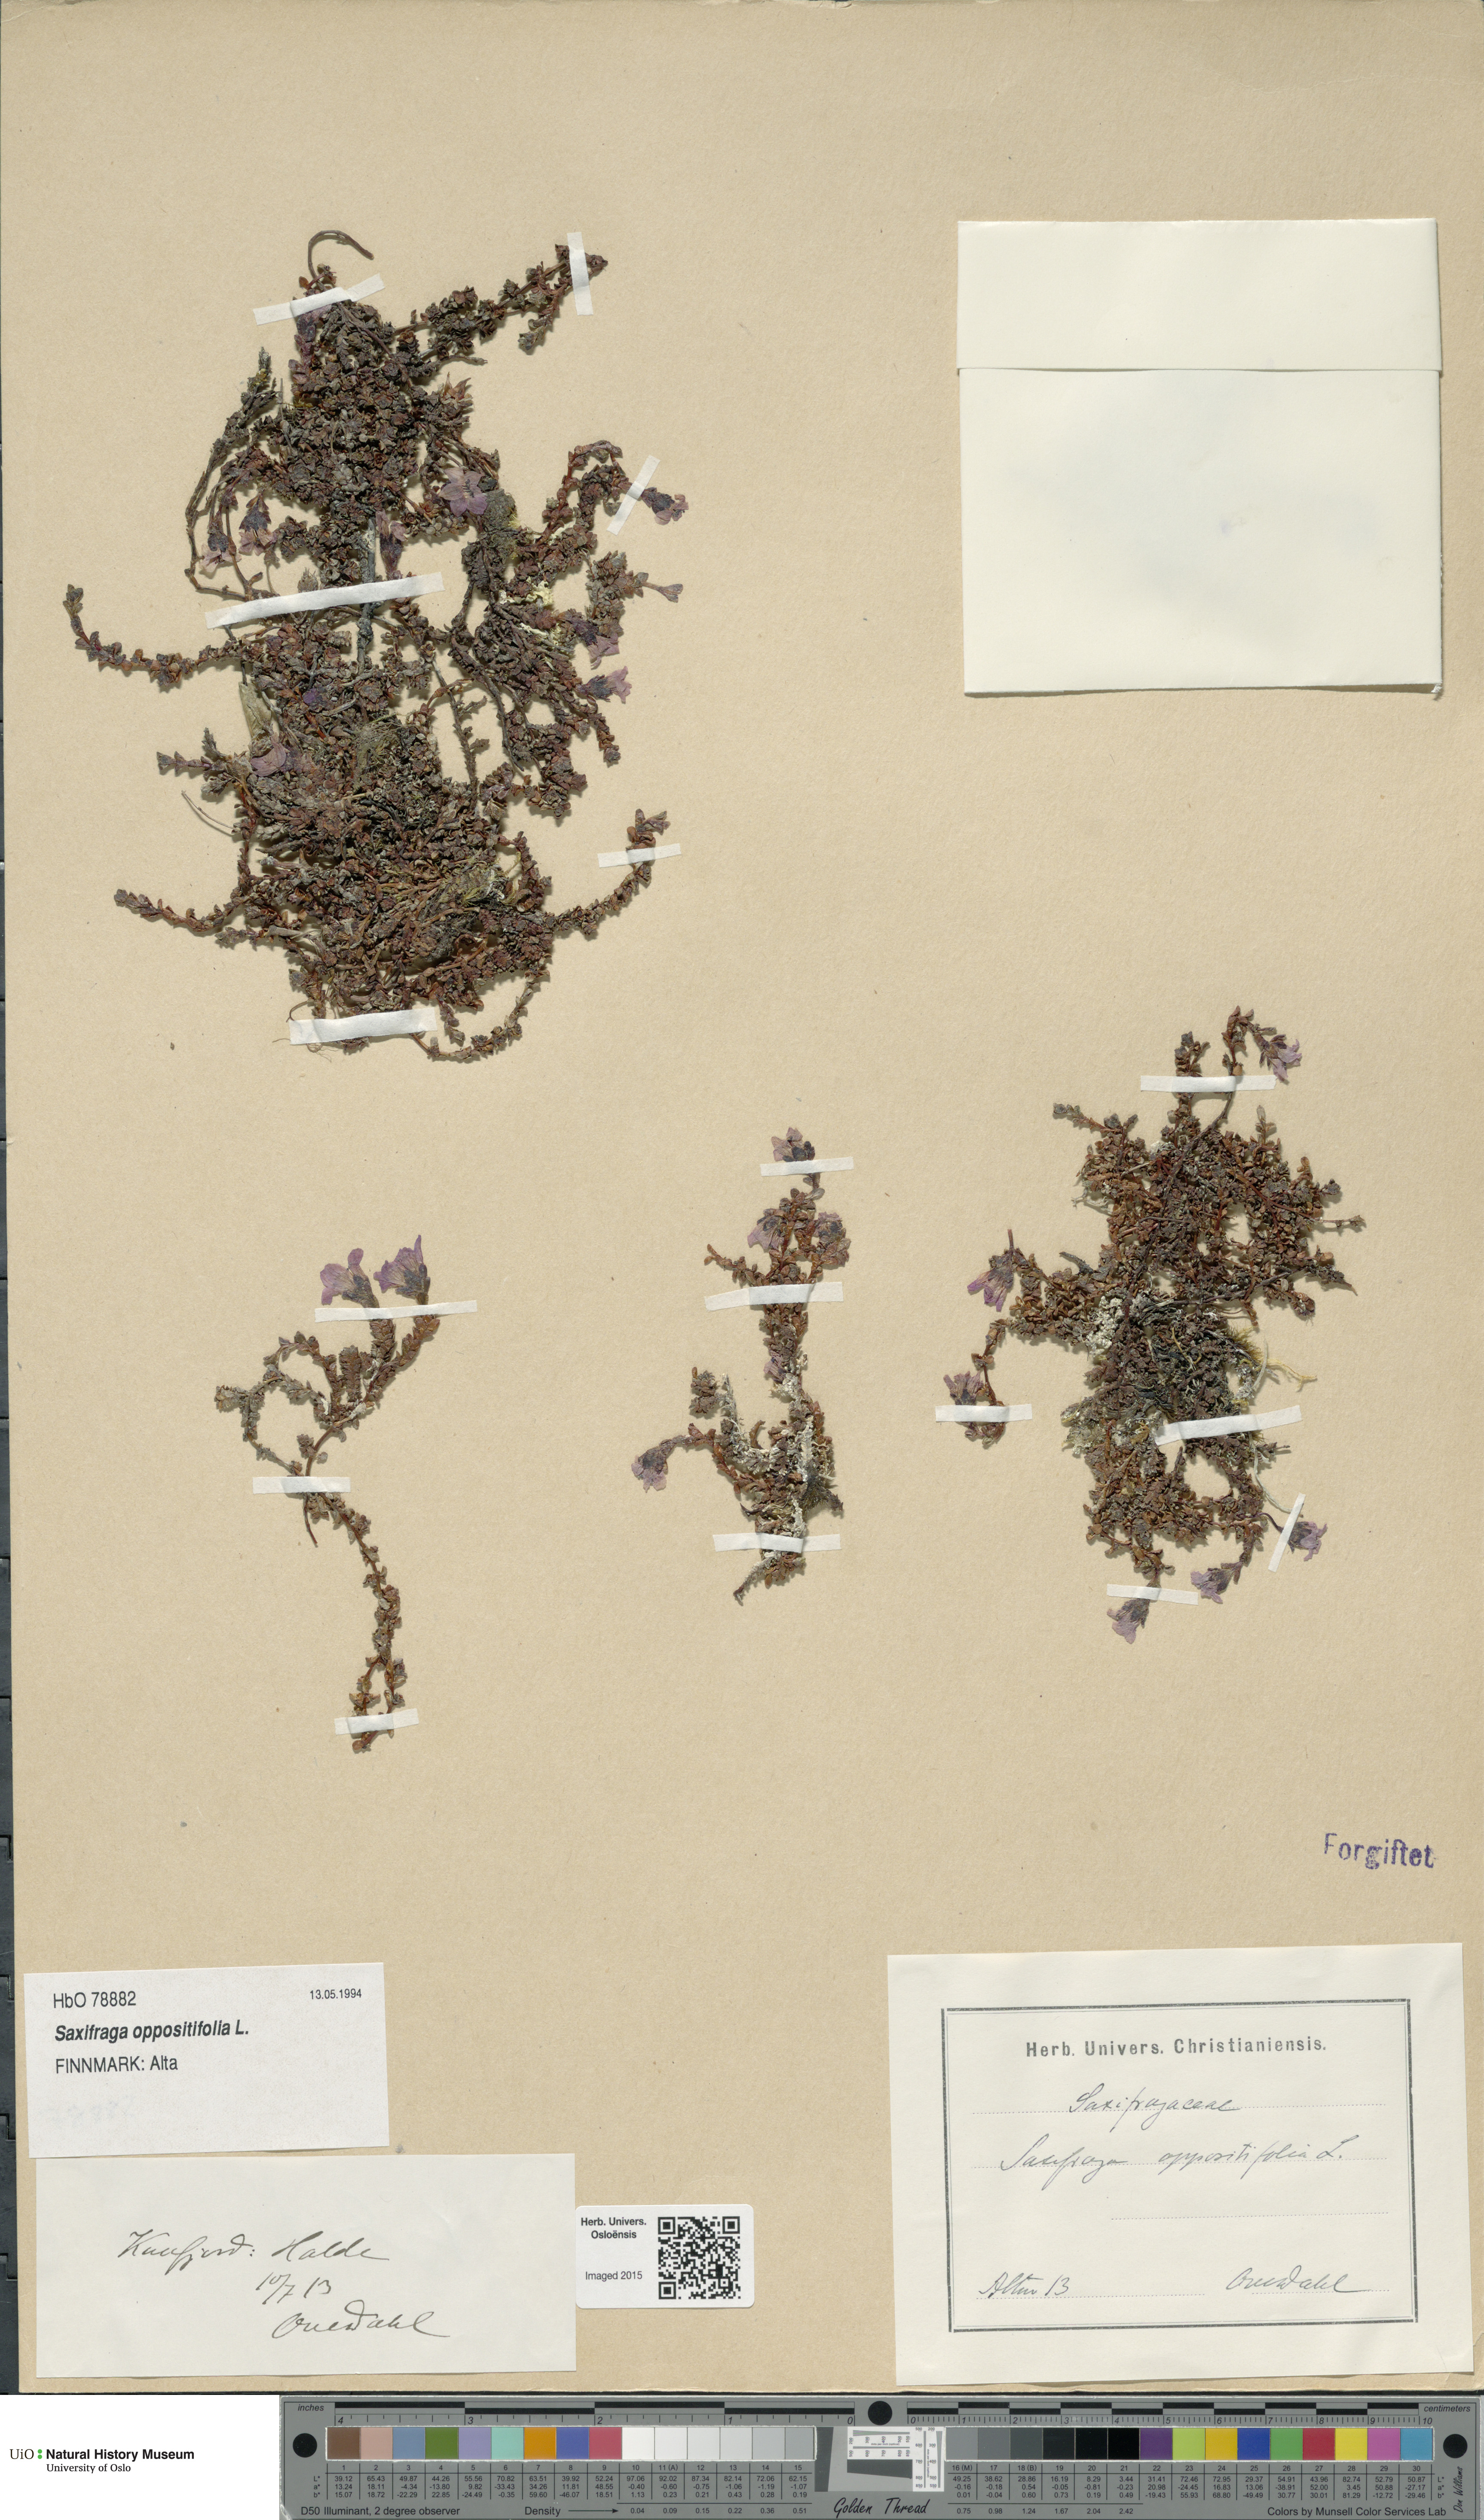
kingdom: Plantae
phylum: Tracheophyta
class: Magnoliopsida
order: Saxifragales
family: Saxifragaceae
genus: Saxifraga
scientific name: Saxifraga oppositifolia
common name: Purple saxifrage
